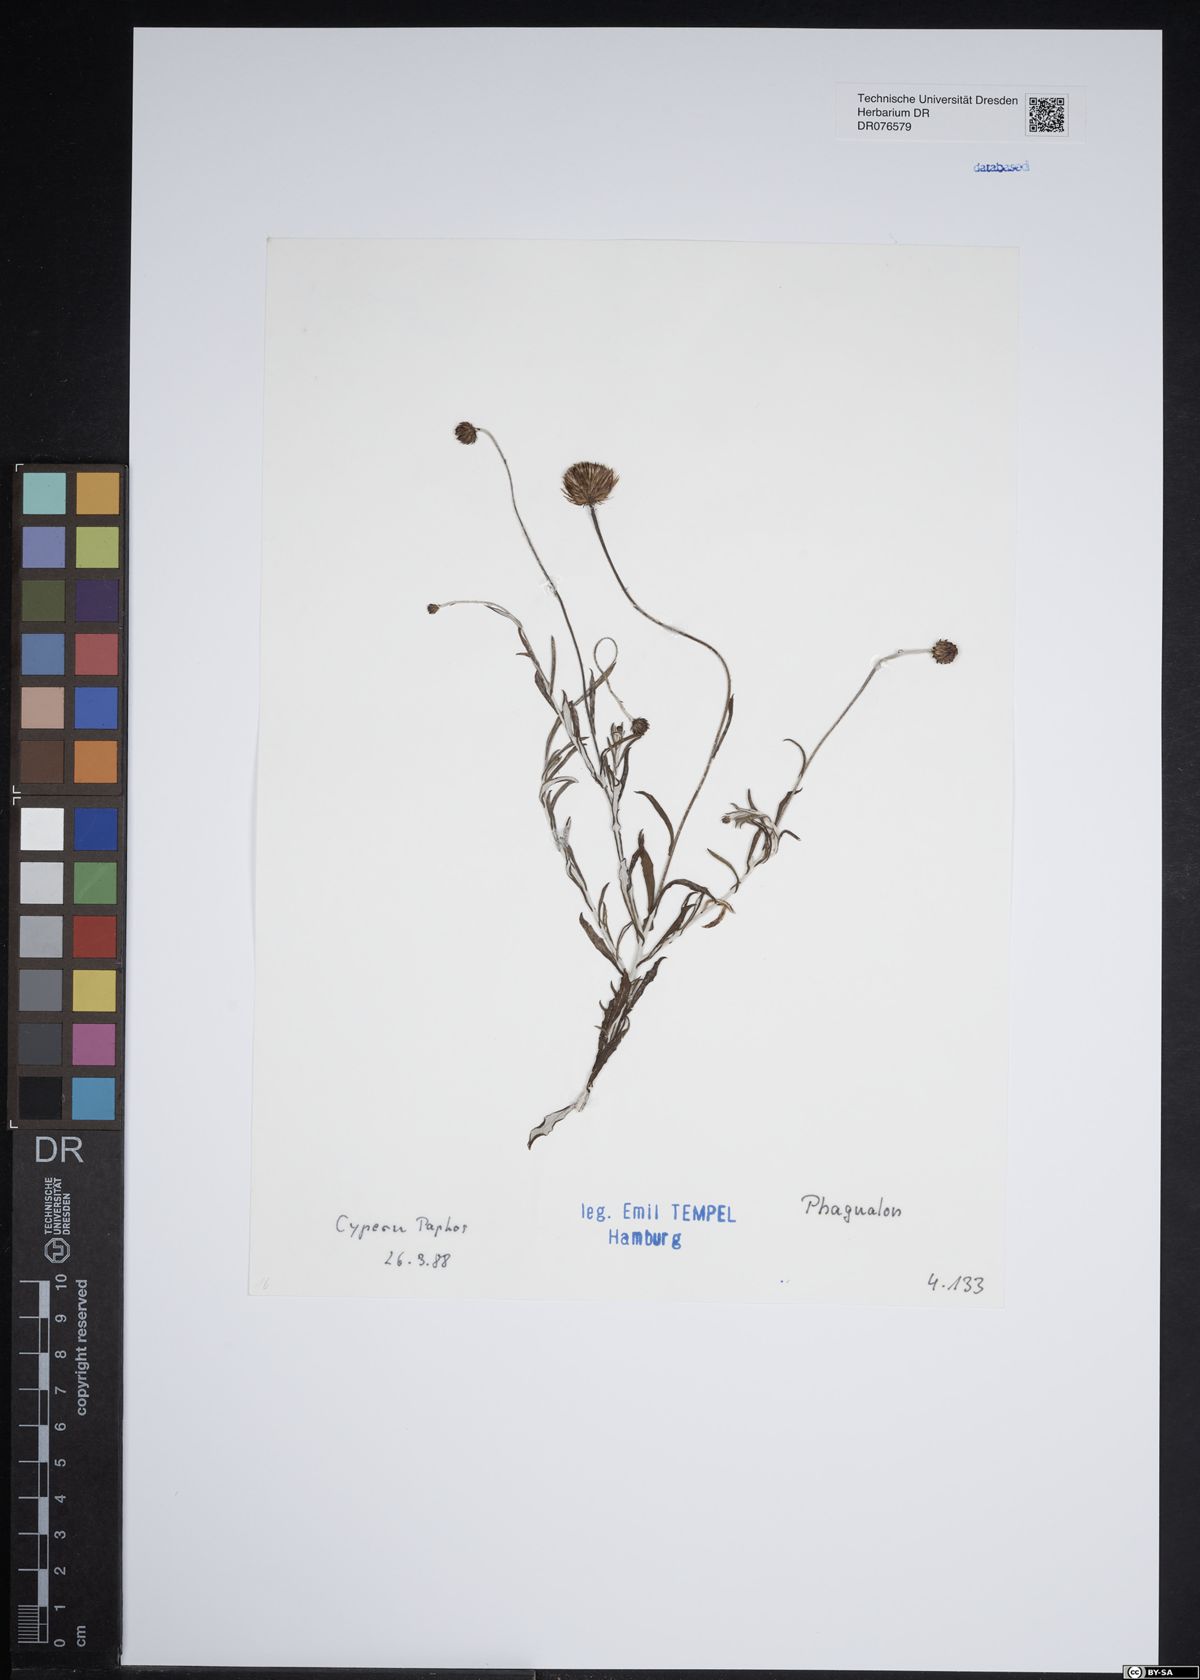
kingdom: Plantae
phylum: Tracheophyta
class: Magnoliopsida
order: Asterales
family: Asteraceae
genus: Phagnalon
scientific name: Phagnalon
